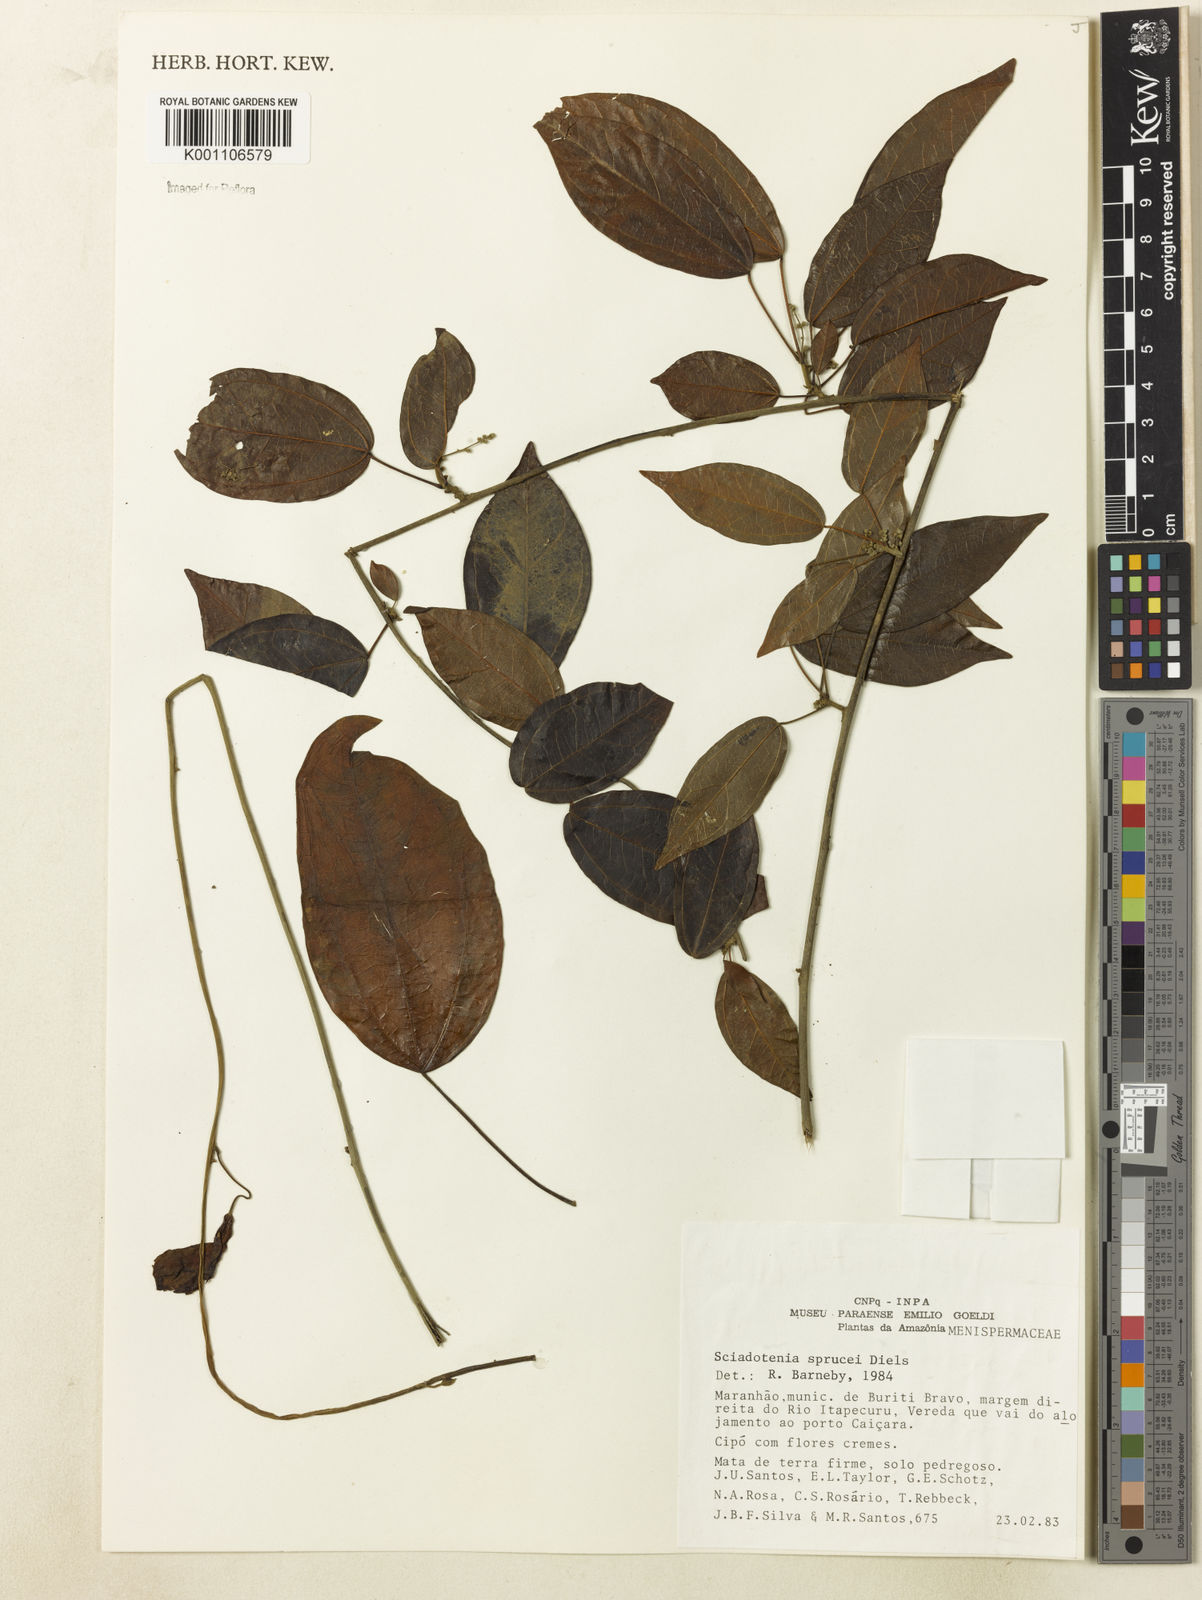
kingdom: Plantae
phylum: Tracheophyta
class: Magnoliopsida
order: Ranunculales
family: Menispermaceae
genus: Sciadotenia
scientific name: Sciadotenia
